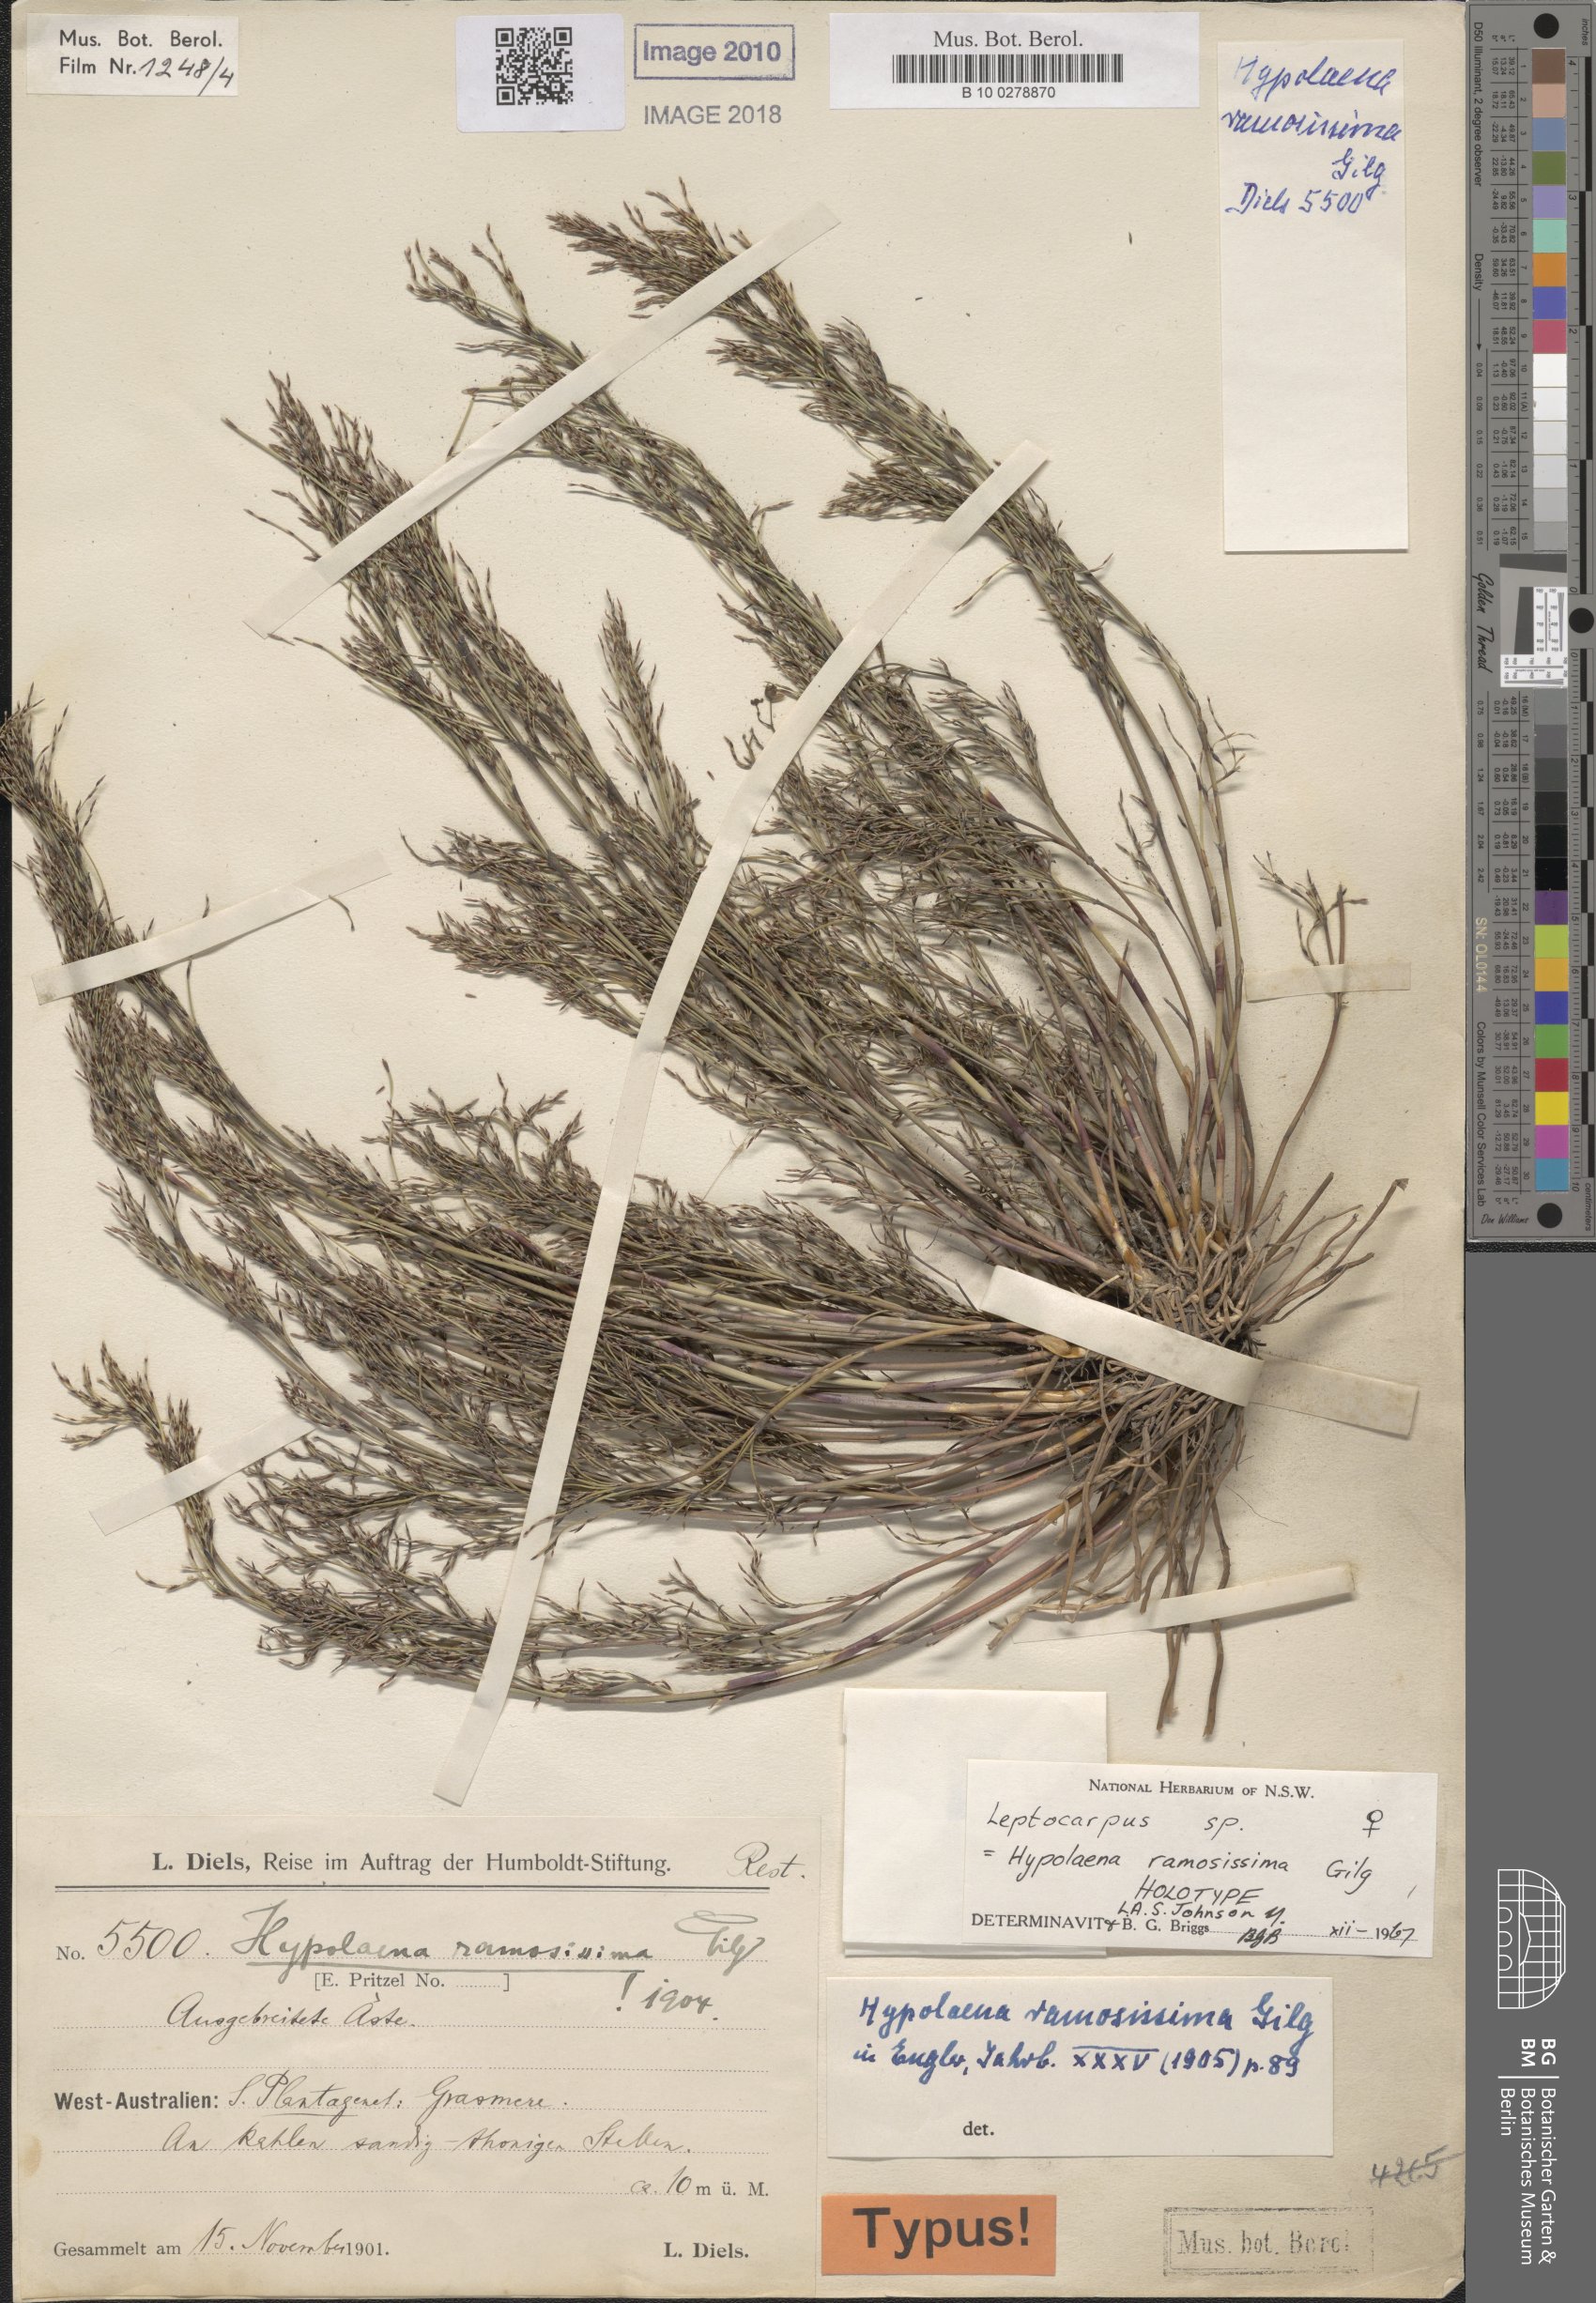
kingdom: Plantae
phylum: Tracheophyta
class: Liliopsida
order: Poales
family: Restionaceae
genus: Hypolaena
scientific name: Hypolaena ramosissima
